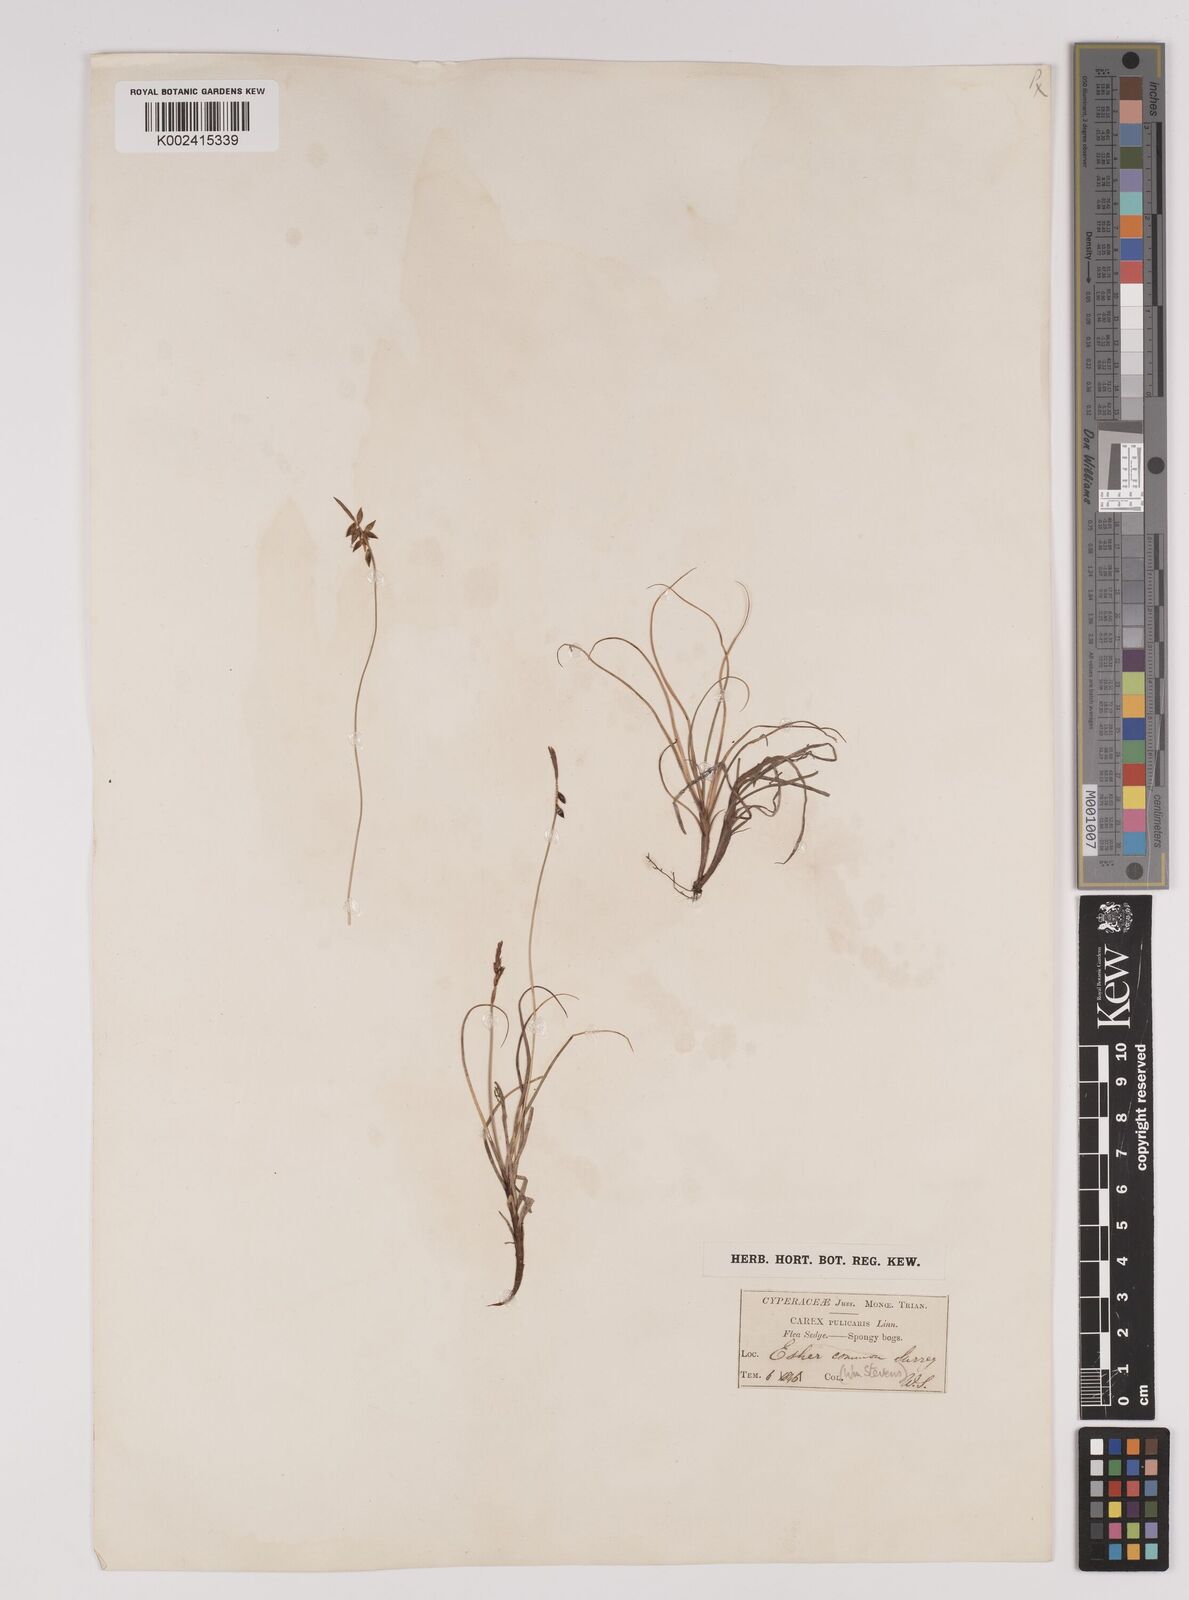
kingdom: Plantae
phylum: Tracheophyta
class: Liliopsida
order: Poales
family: Cyperaceae
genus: Carex
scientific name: Carex pulicaris
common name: Flea sedge
